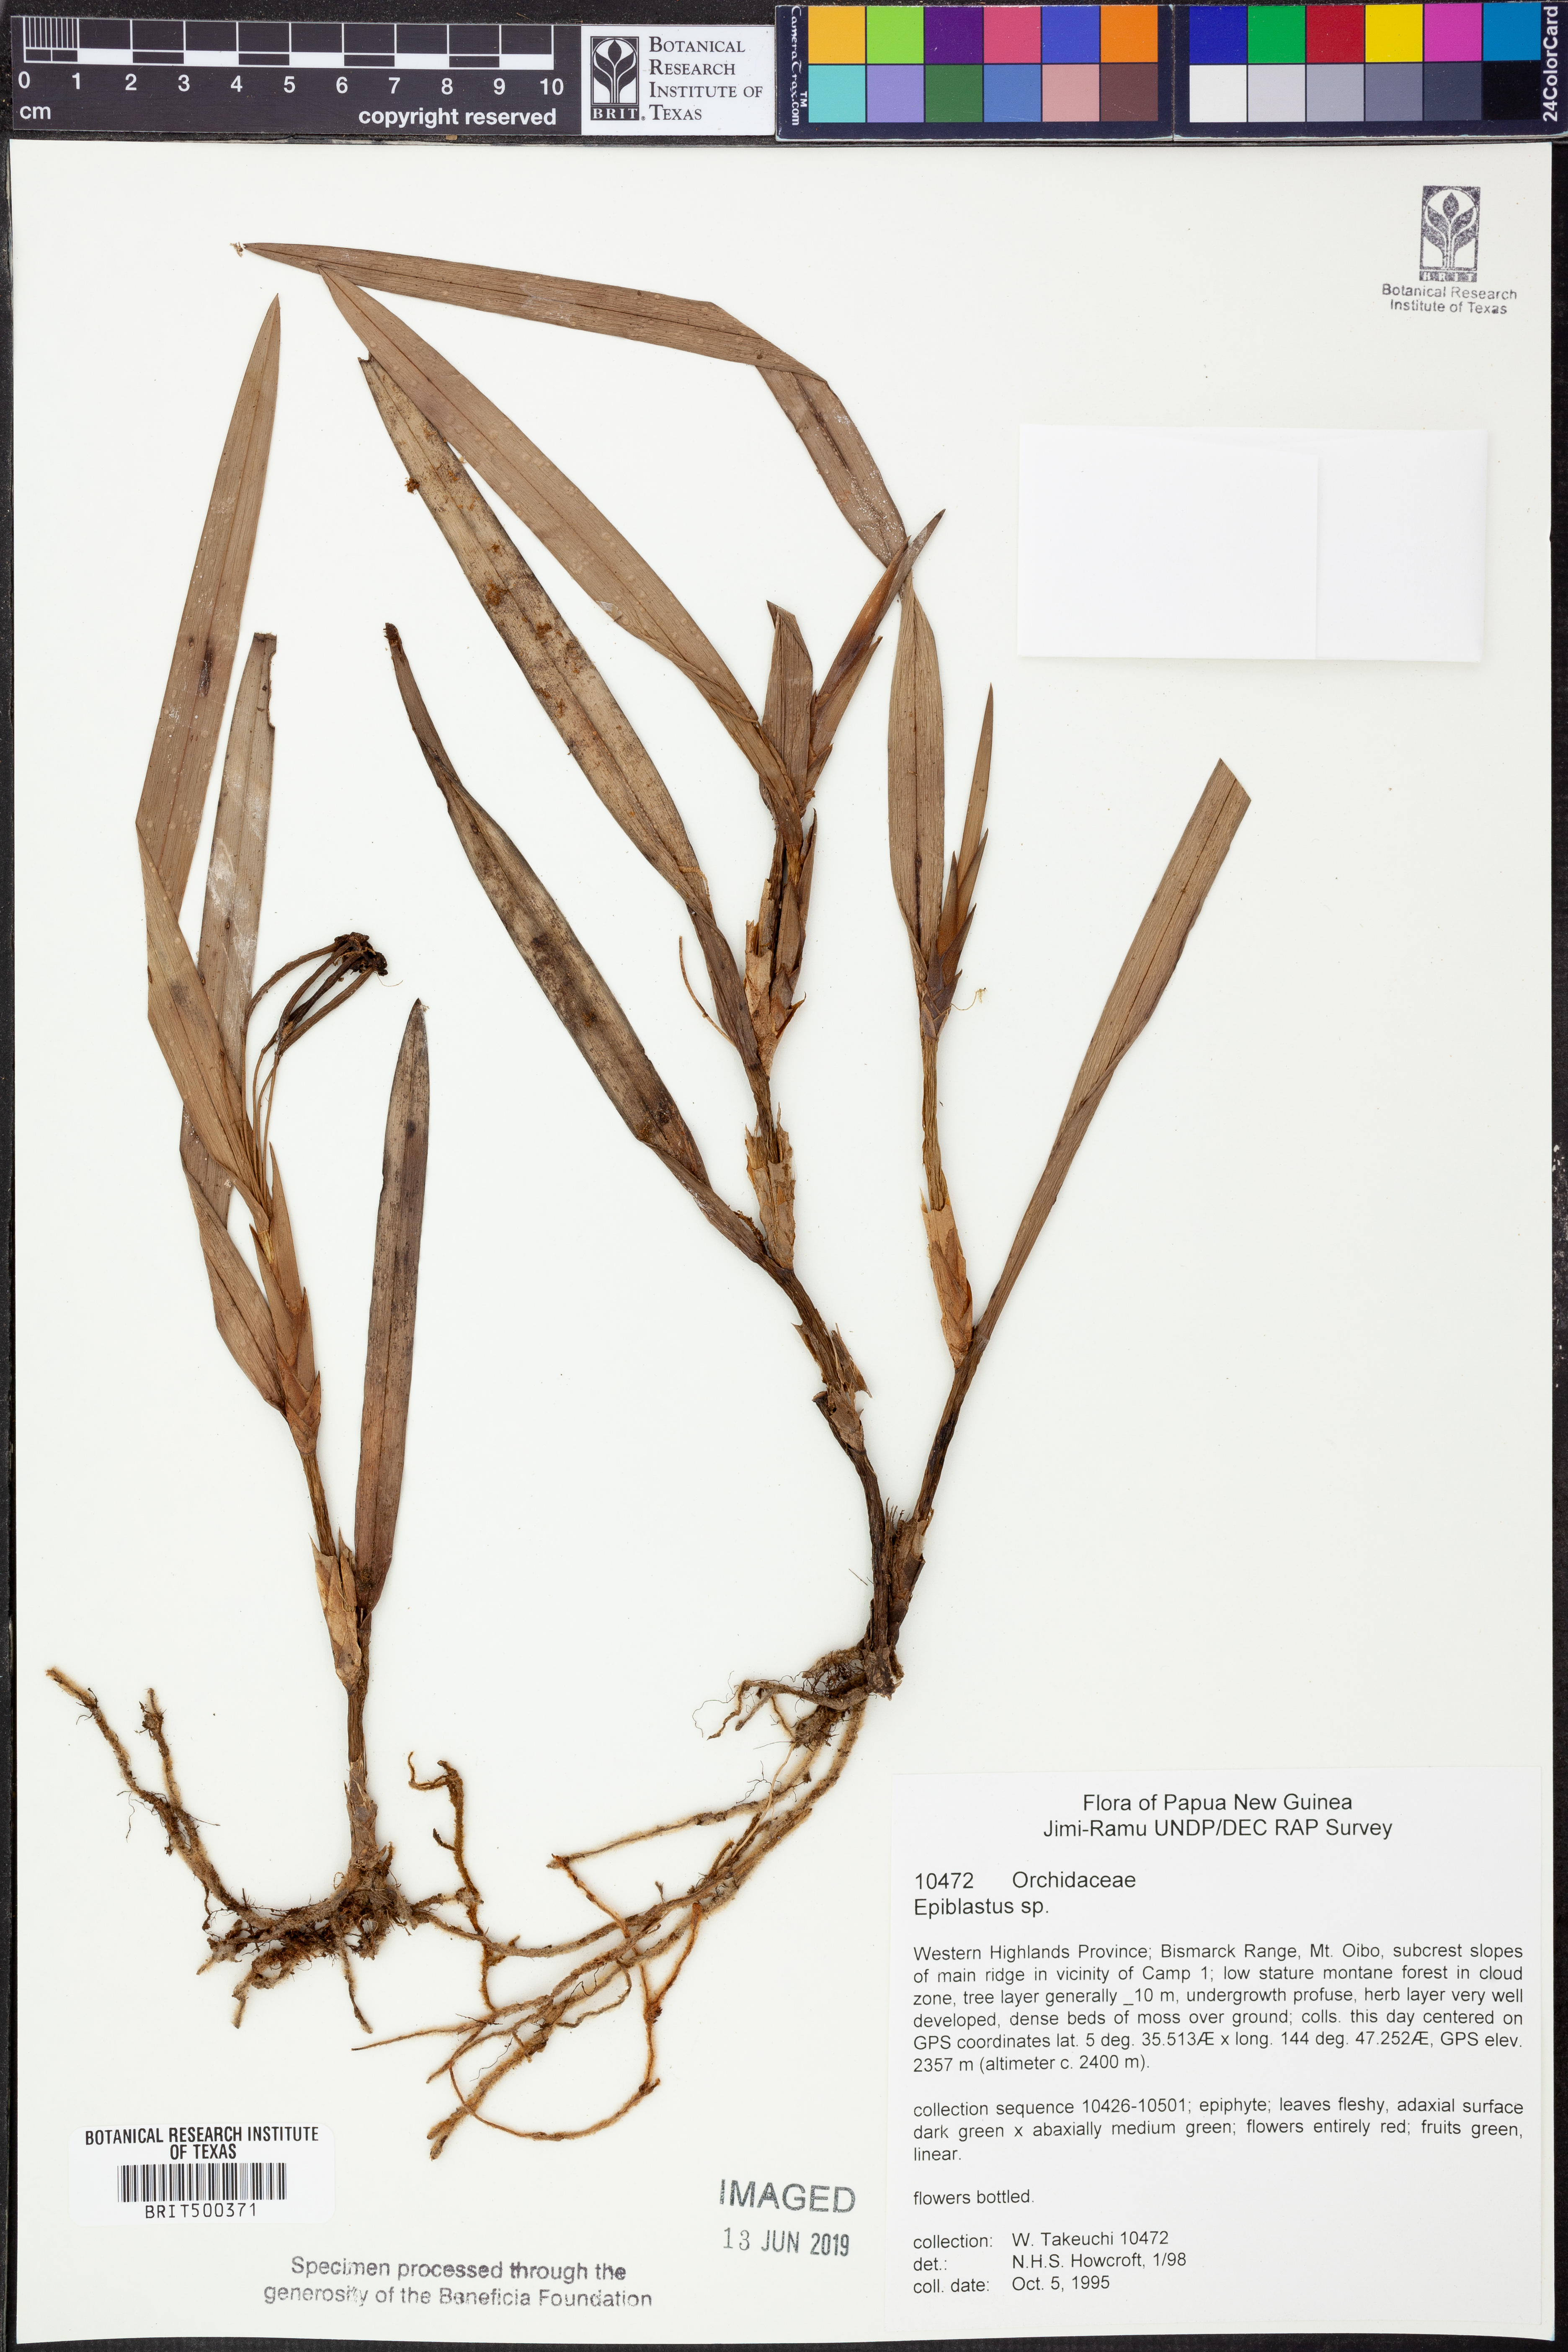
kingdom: Plantae
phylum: Tracheophyta
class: Liliopsida
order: Asparagales
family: Orchidaceae
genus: Epiblastus
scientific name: Epiblastus
